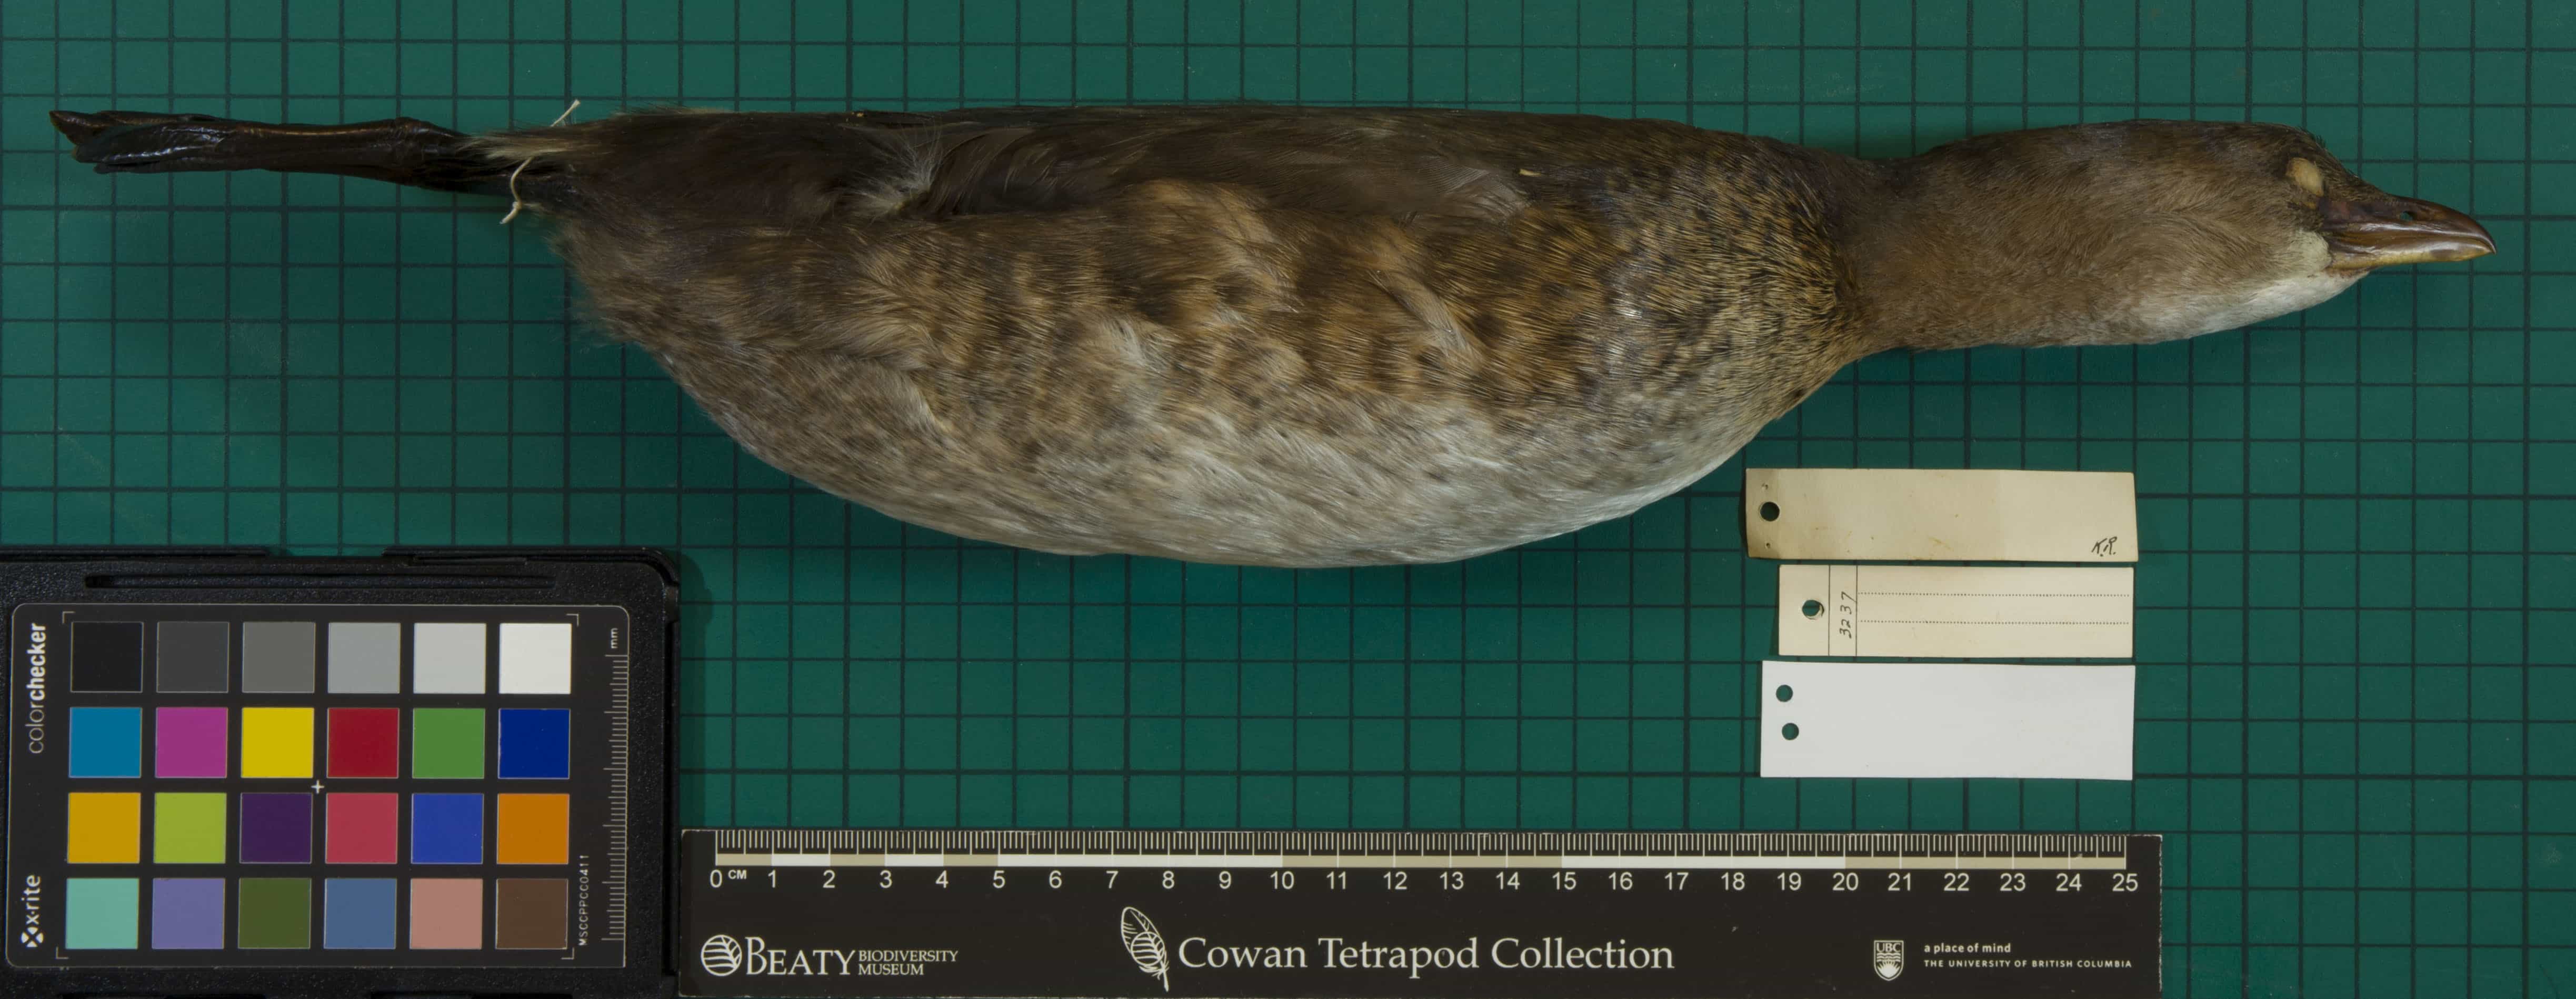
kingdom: Animalia
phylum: Chordata
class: Aves
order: Podicipediformes
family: Podicipedidae
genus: Podilymbus
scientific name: Podilymbus podiceps
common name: Pied-billed Grebe
